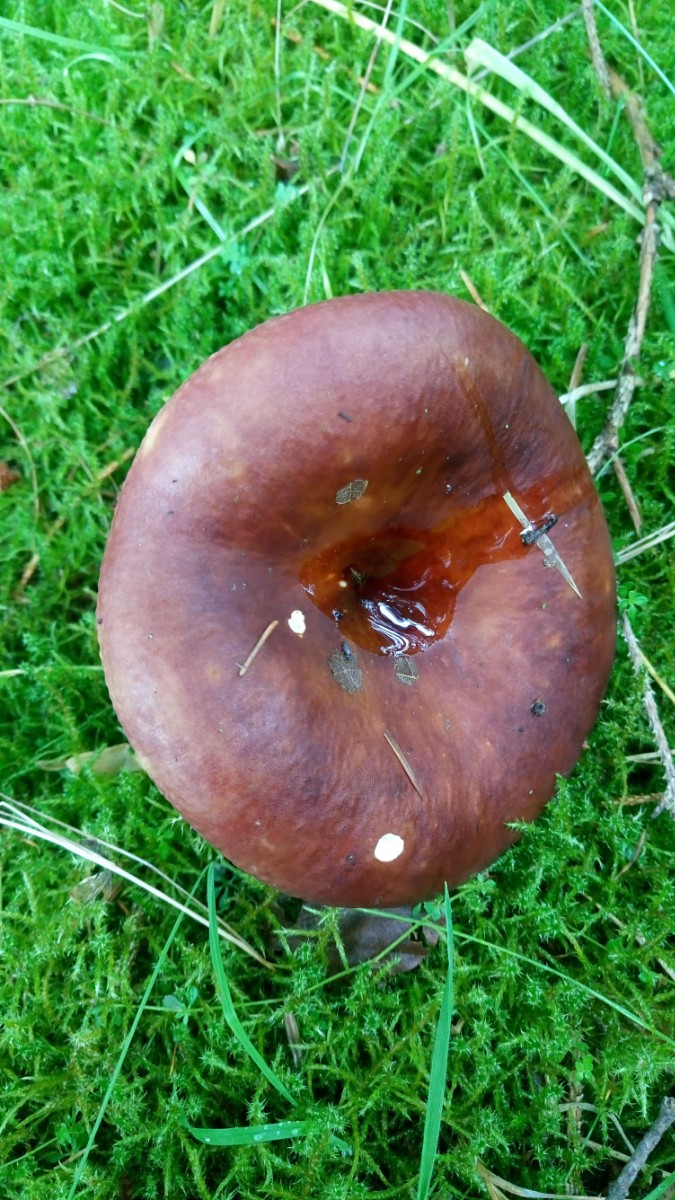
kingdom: Fungi
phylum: Basidiomycota
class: Agaricomycetes
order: Russulales
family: Russulaceae
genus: Russula
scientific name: Russula xerampelina
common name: hummer-skørhat
